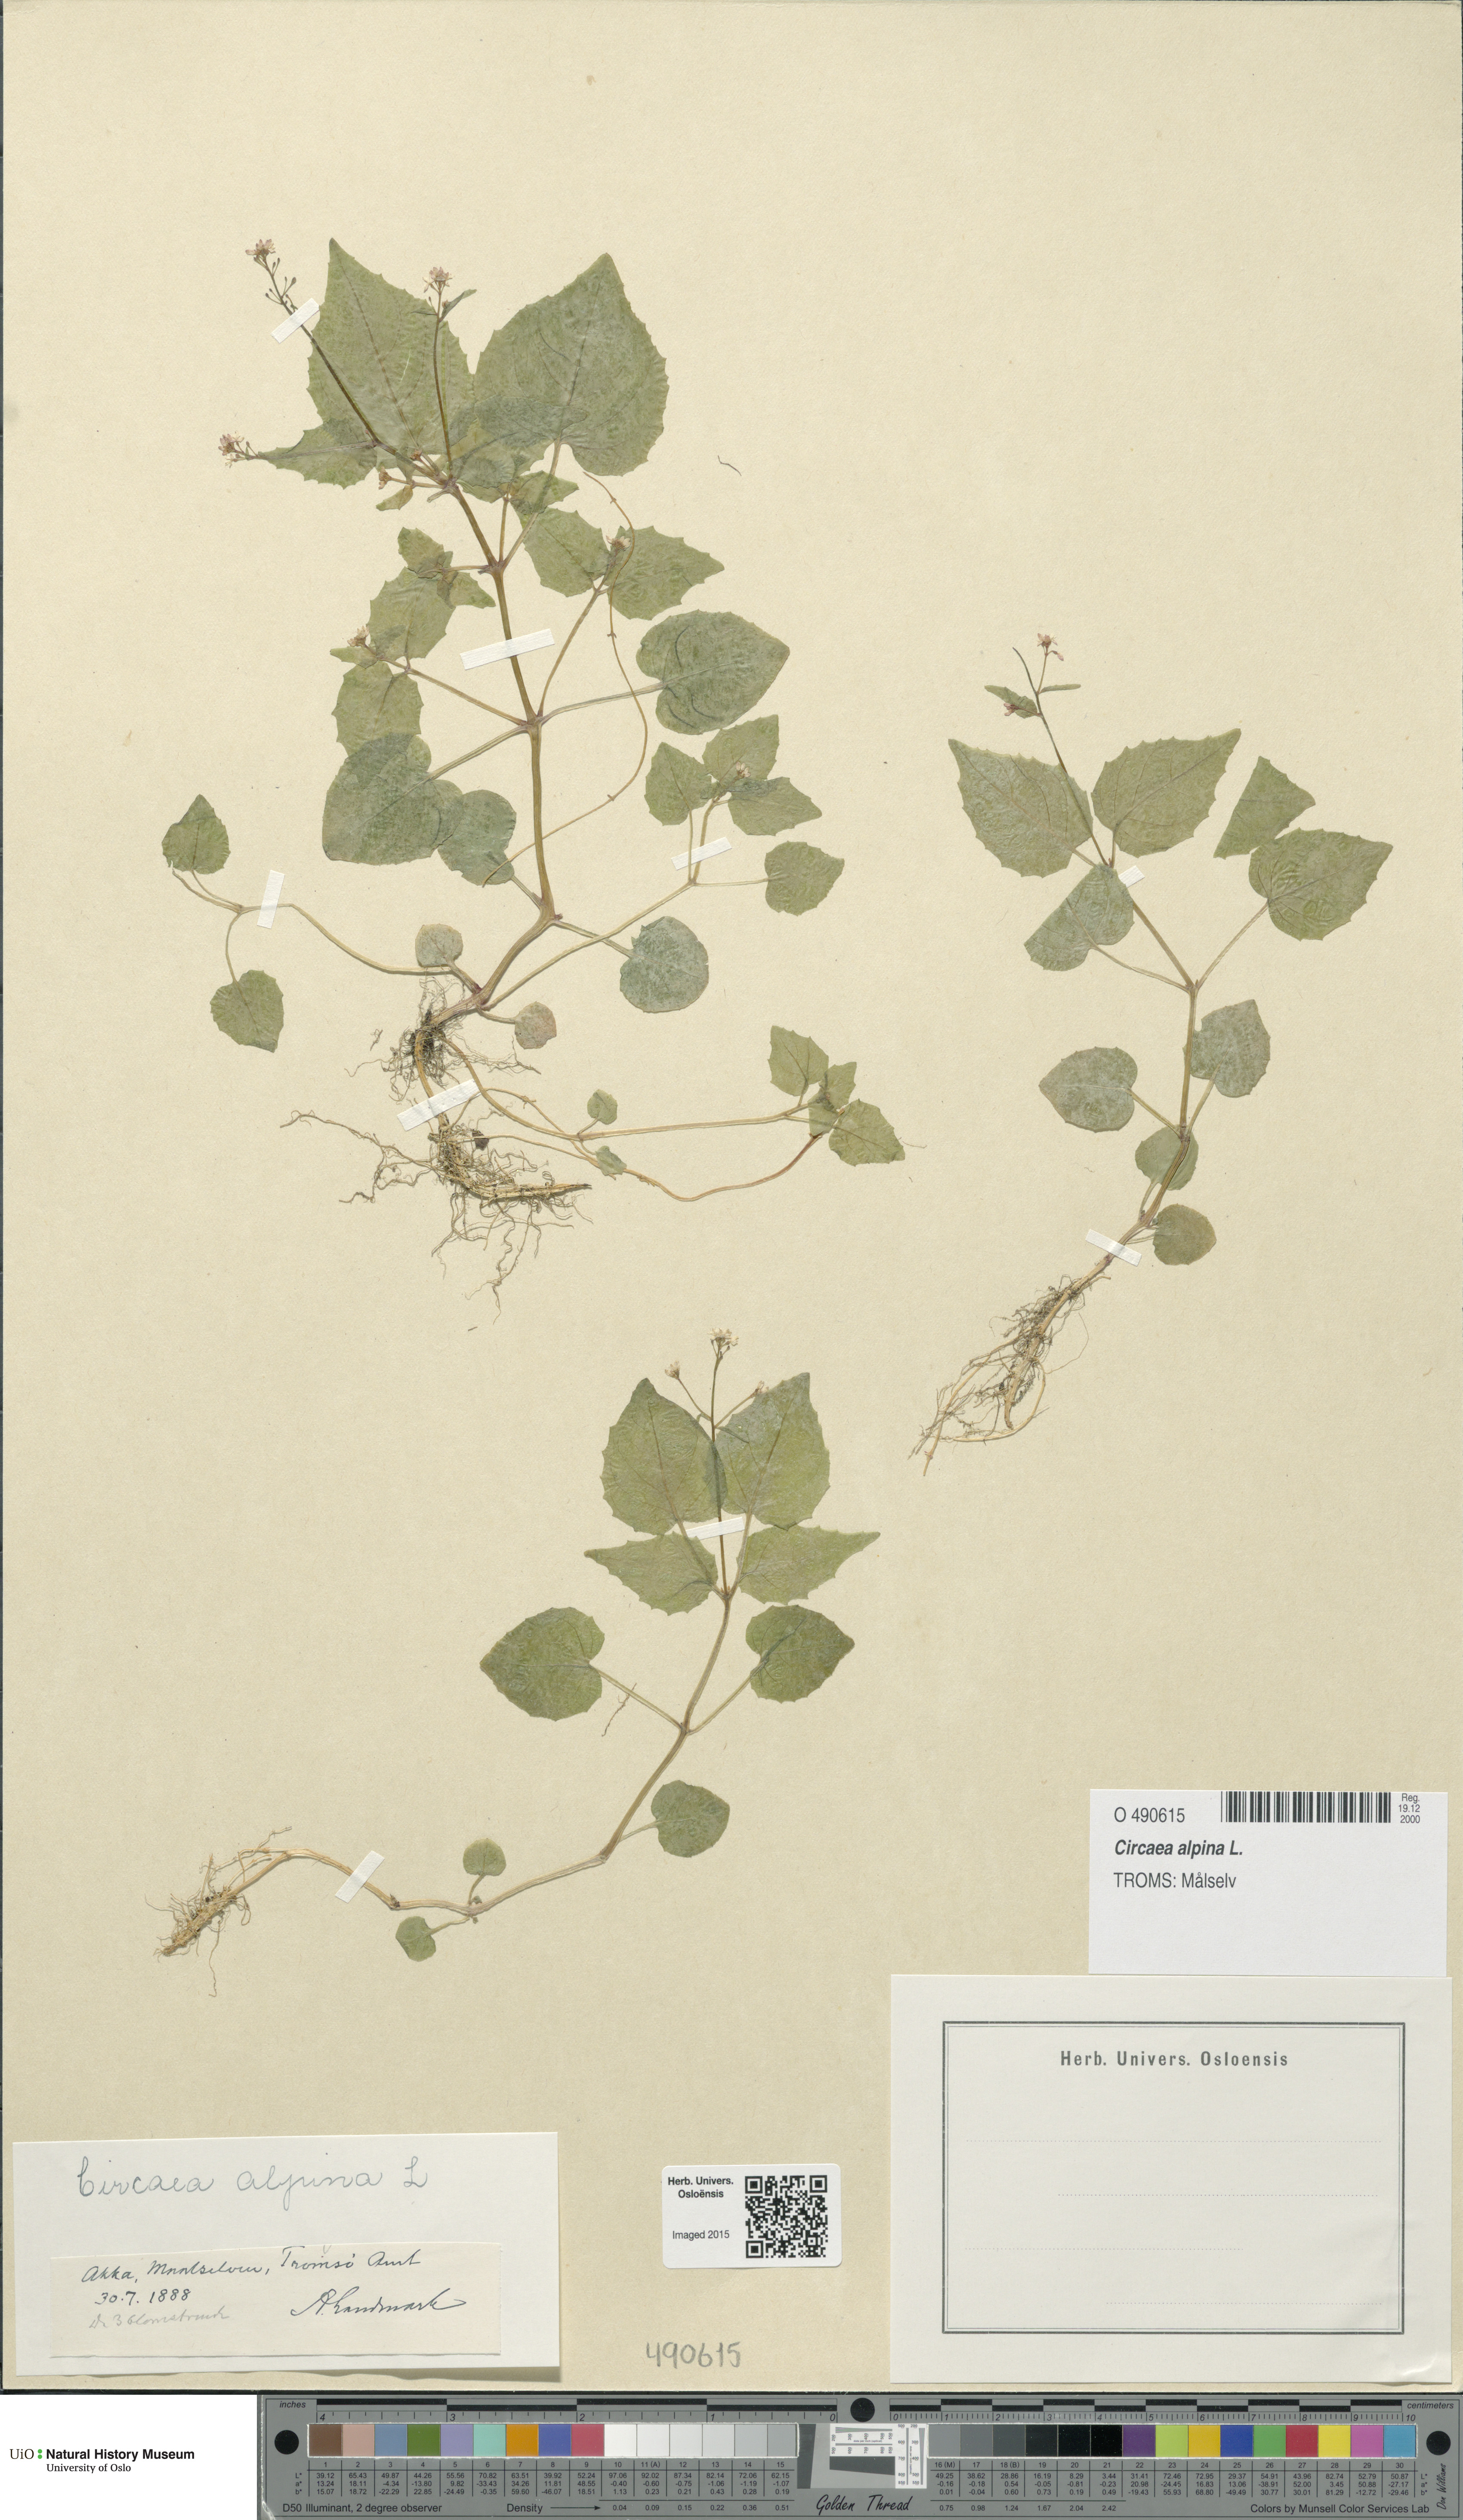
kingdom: Plantae
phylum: Tracheophyta
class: Magnoliopsida
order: Myrtales
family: Onagraceae
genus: Circaea
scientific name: Circaea alpina
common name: Alpine enchanter's-nightshade
